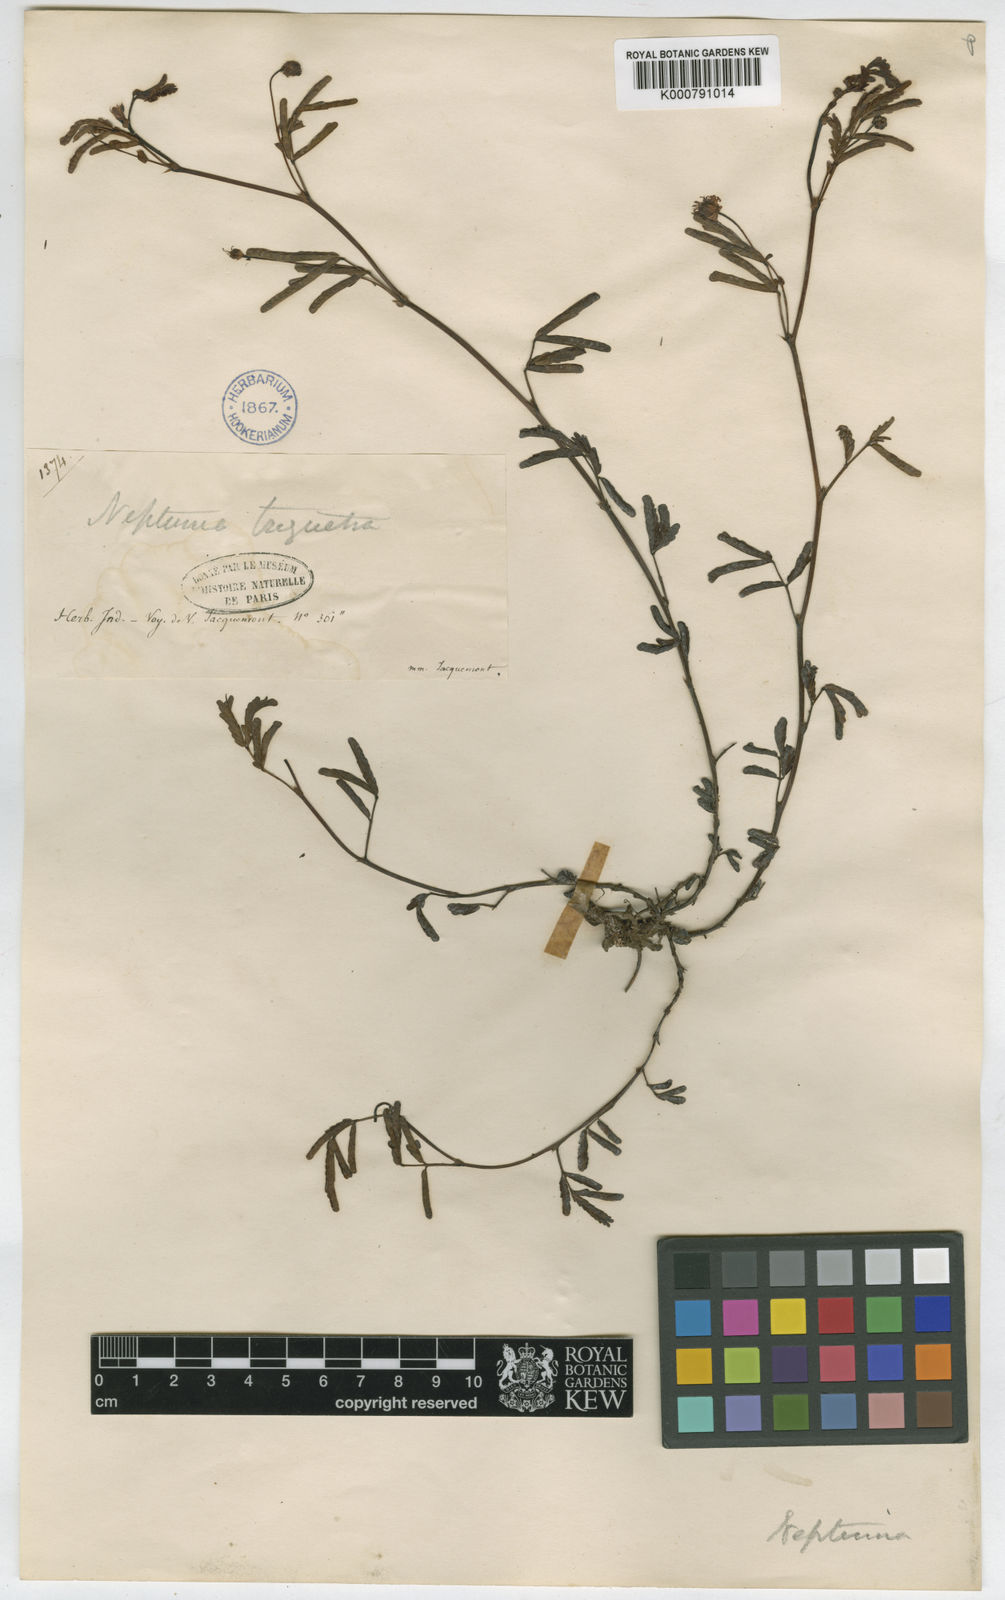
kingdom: Plantae
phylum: Tracheophyta
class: Magnoliopsida
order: Fabales
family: Fabaceae
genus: Neptunia
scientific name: Neptunia triquetra
